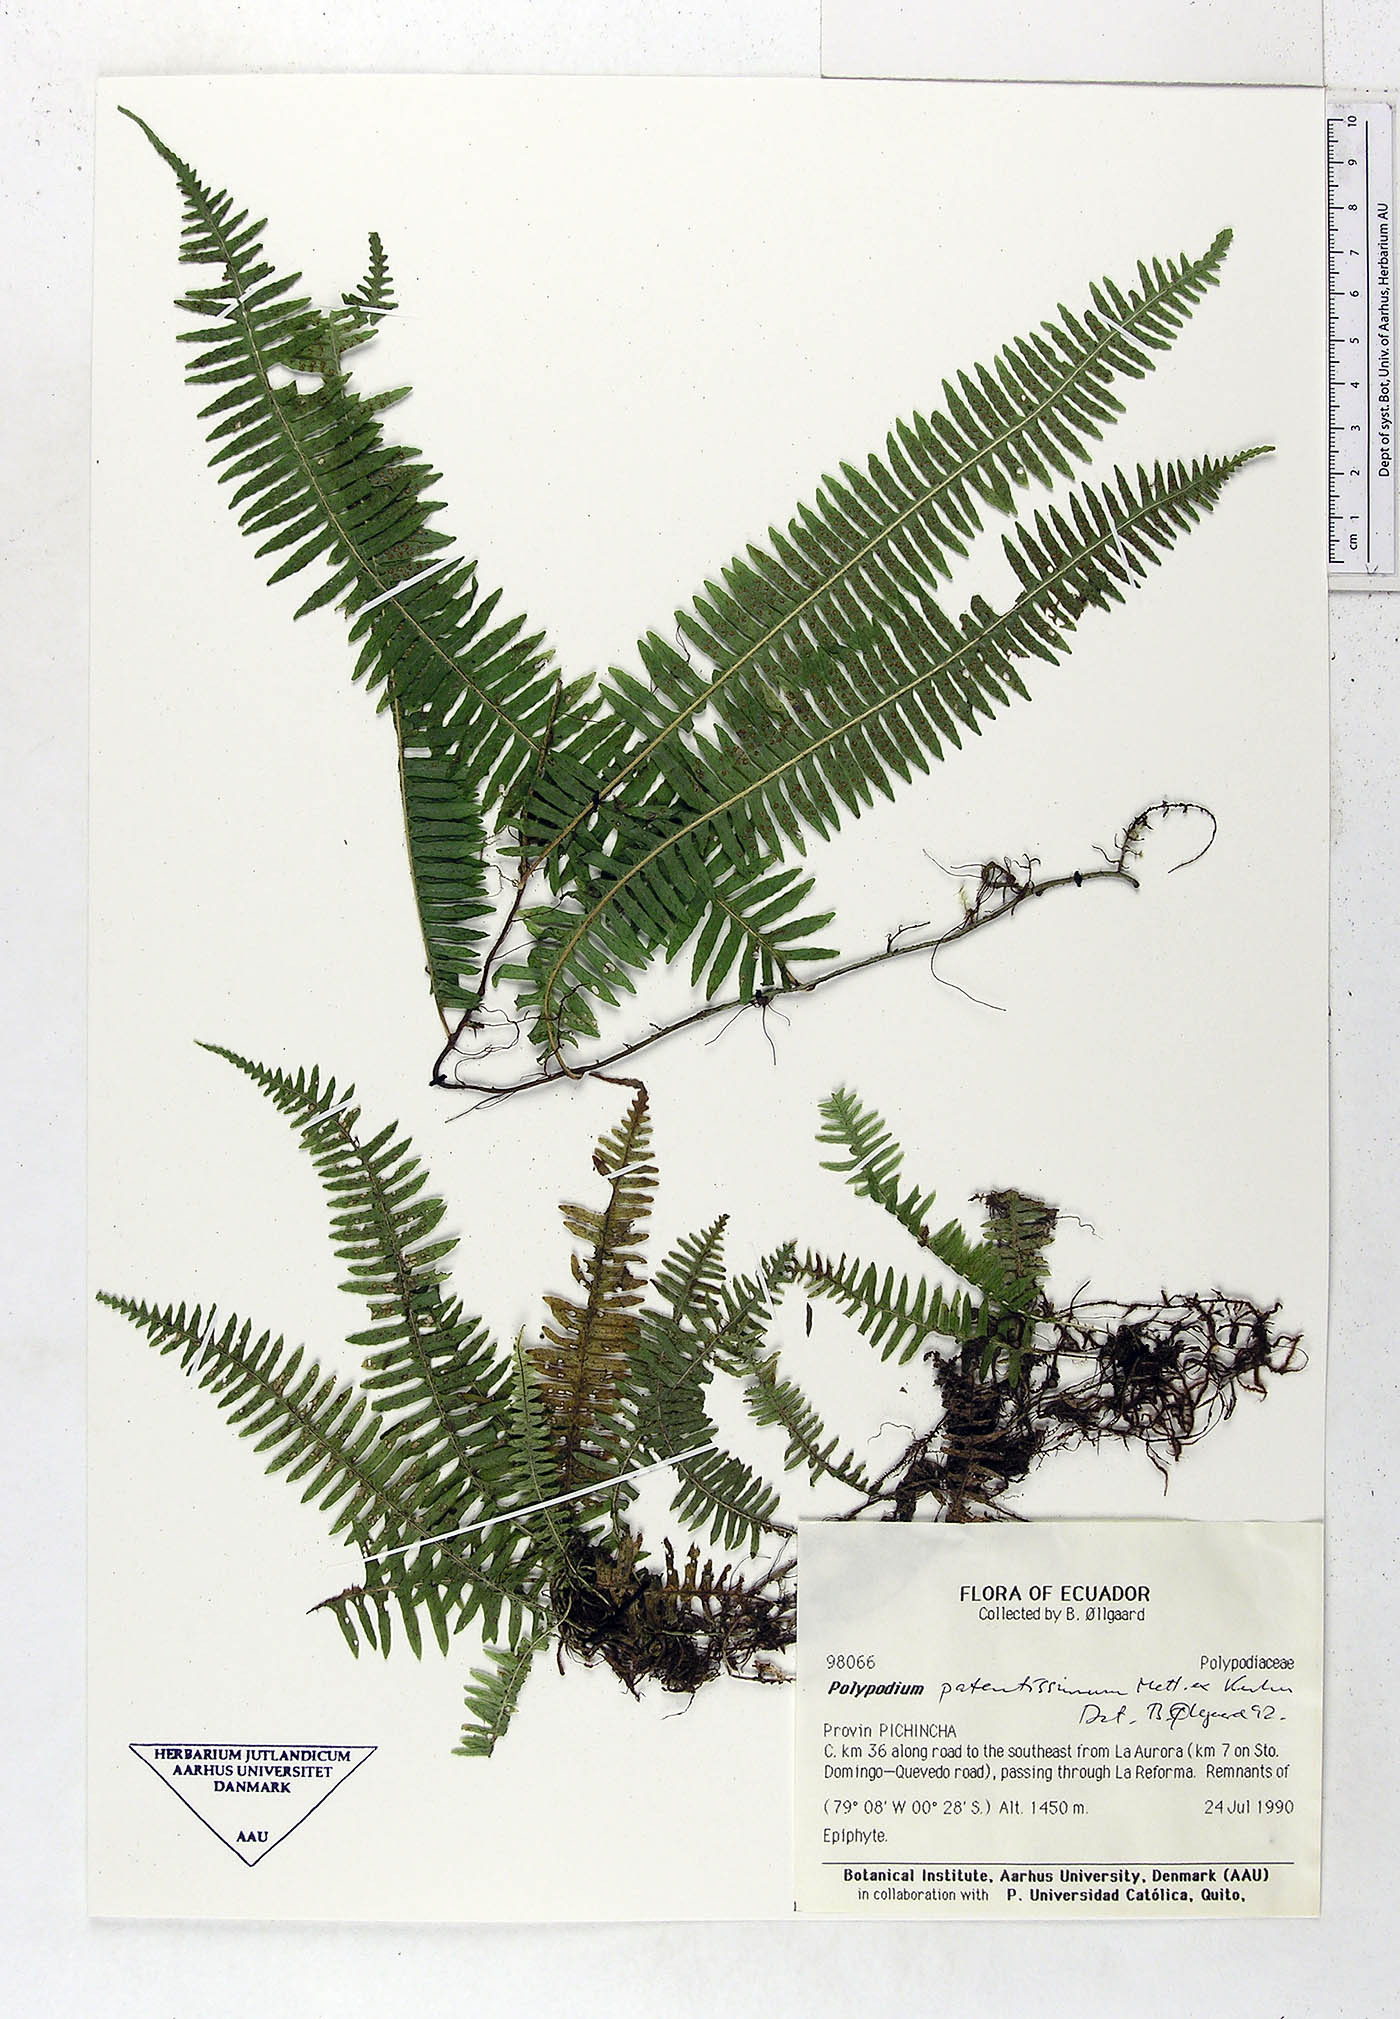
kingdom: Plantae
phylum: Tracheophyta
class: Polypodiopsida
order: Polypodiales
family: Polypodiaceae
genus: Serpocaulon
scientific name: Serpocaulon patentissimum
